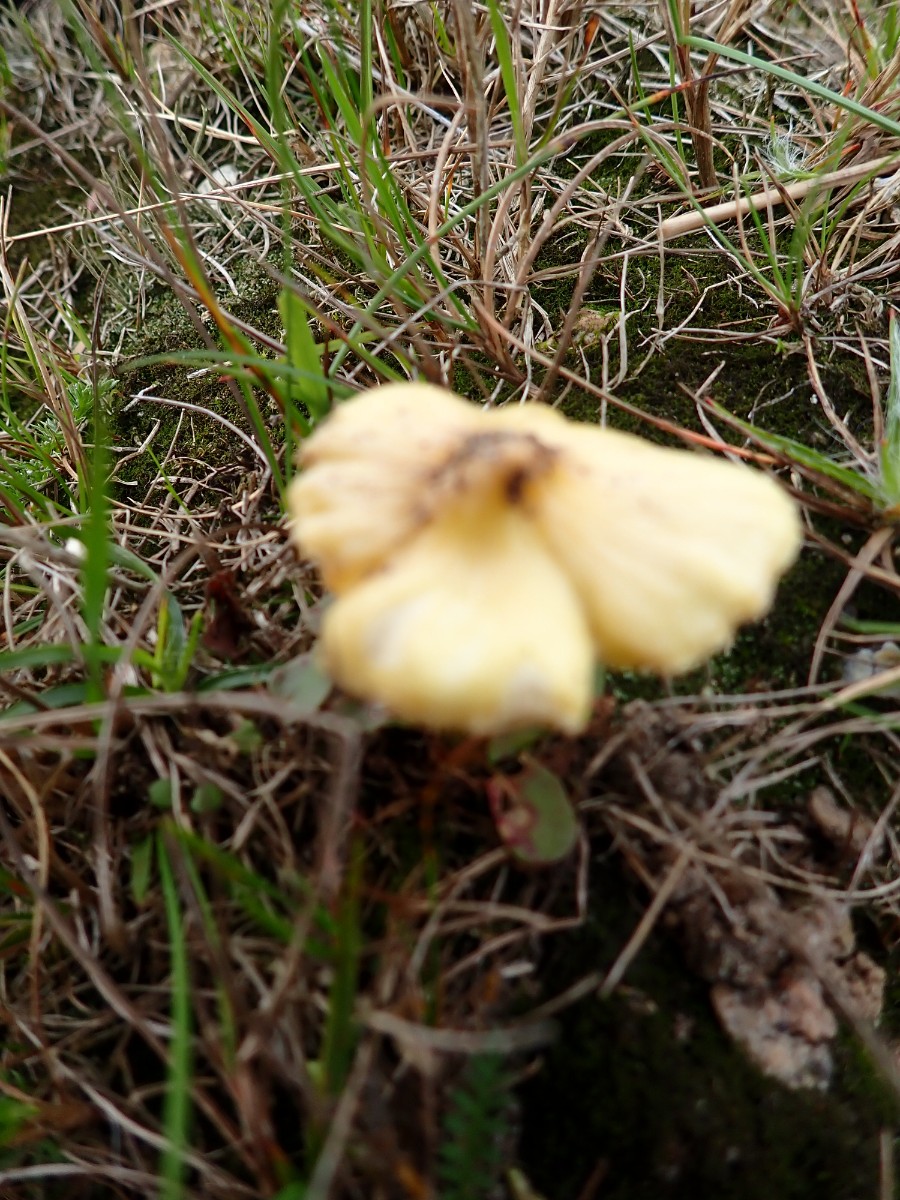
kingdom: Fungi
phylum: Basidiomycota
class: Agaricomycetes
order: Agaricales
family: Hygrophoraceae
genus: Hygrocybe
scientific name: Hygrocybe
